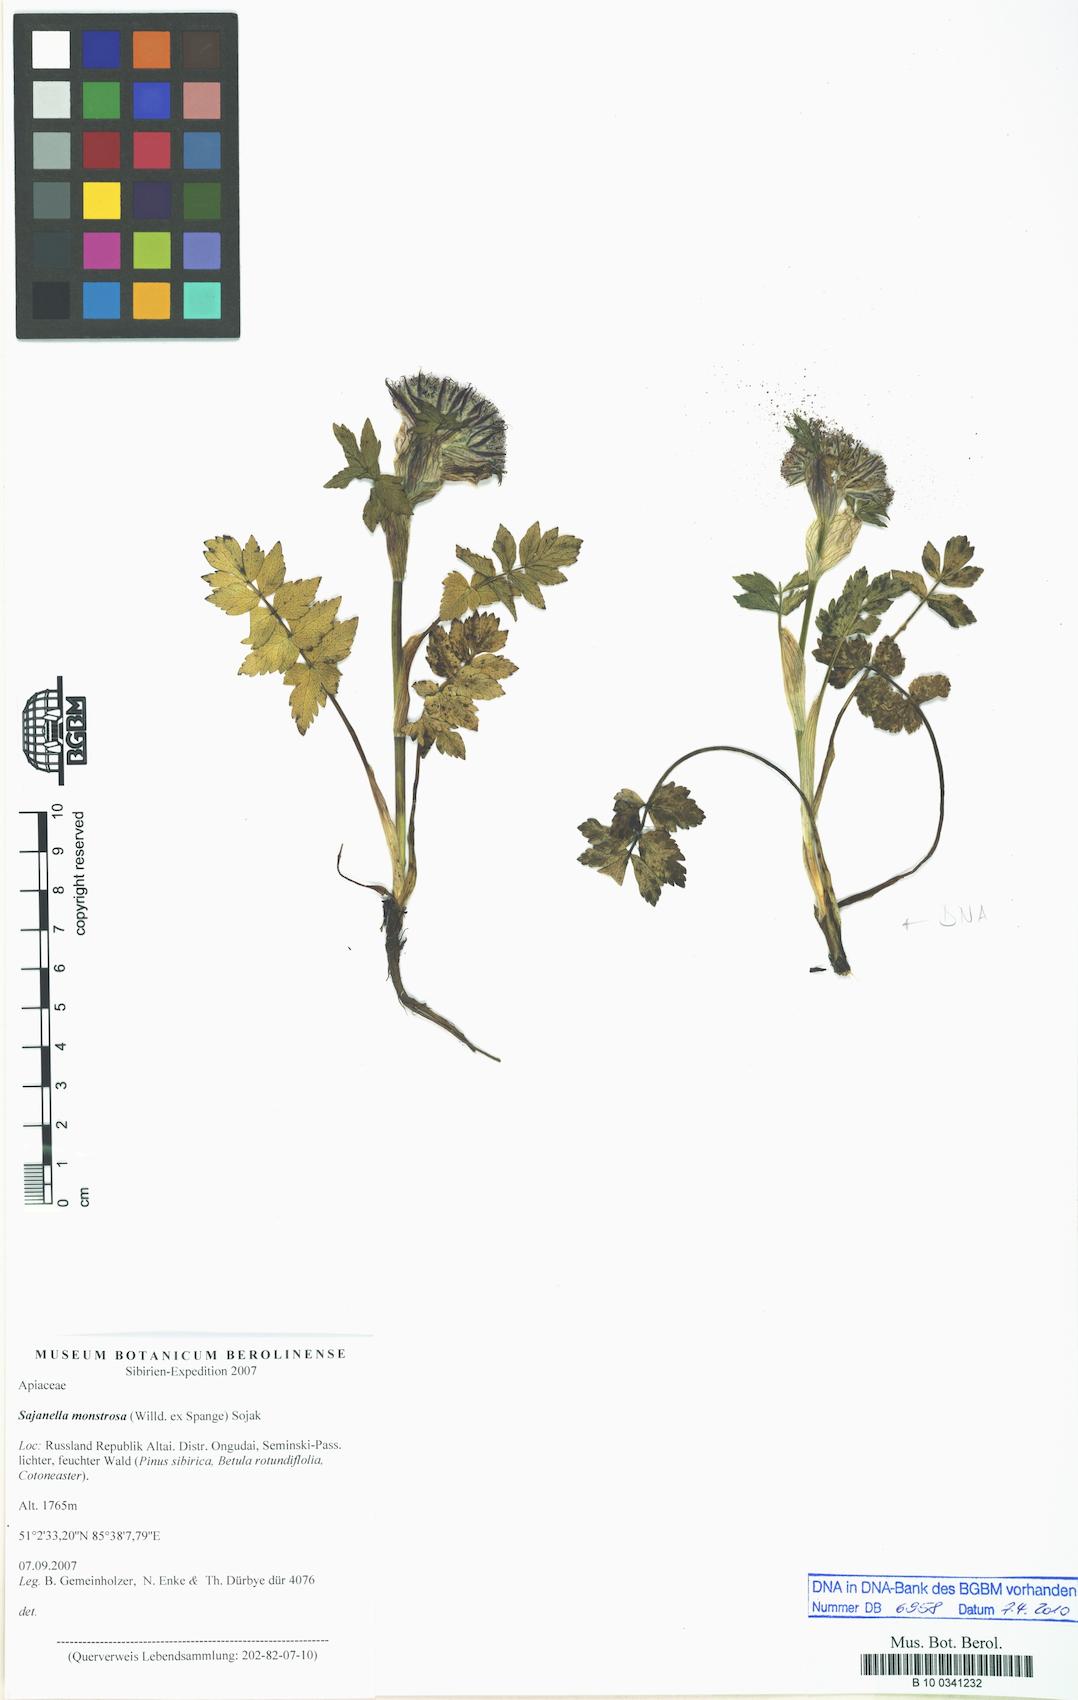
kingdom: Plantae
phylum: Tracheophyta
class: Magnoliopsida
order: Apiales
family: Apiaceae
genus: Sajanella
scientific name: Sajanella monstrosa
